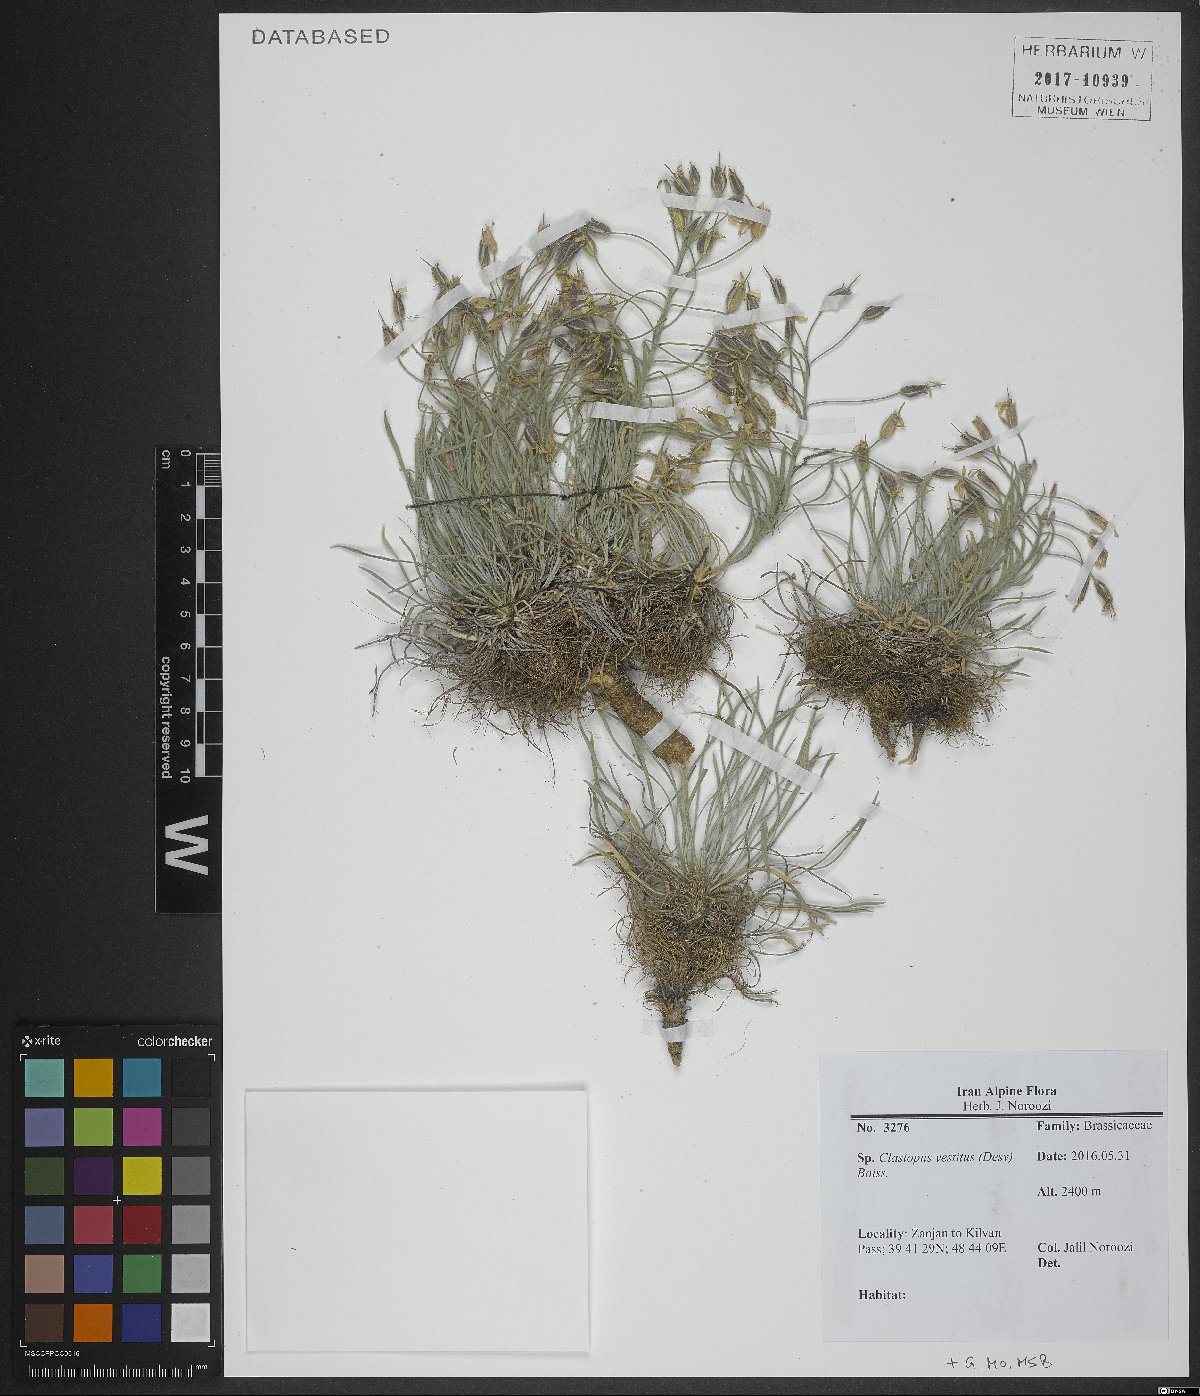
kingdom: Plantae
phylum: Tracheophyta
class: Magnoliopsida
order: Brassicales
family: Brassicaceae
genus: Clastopus
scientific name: Clastopus vestitus
